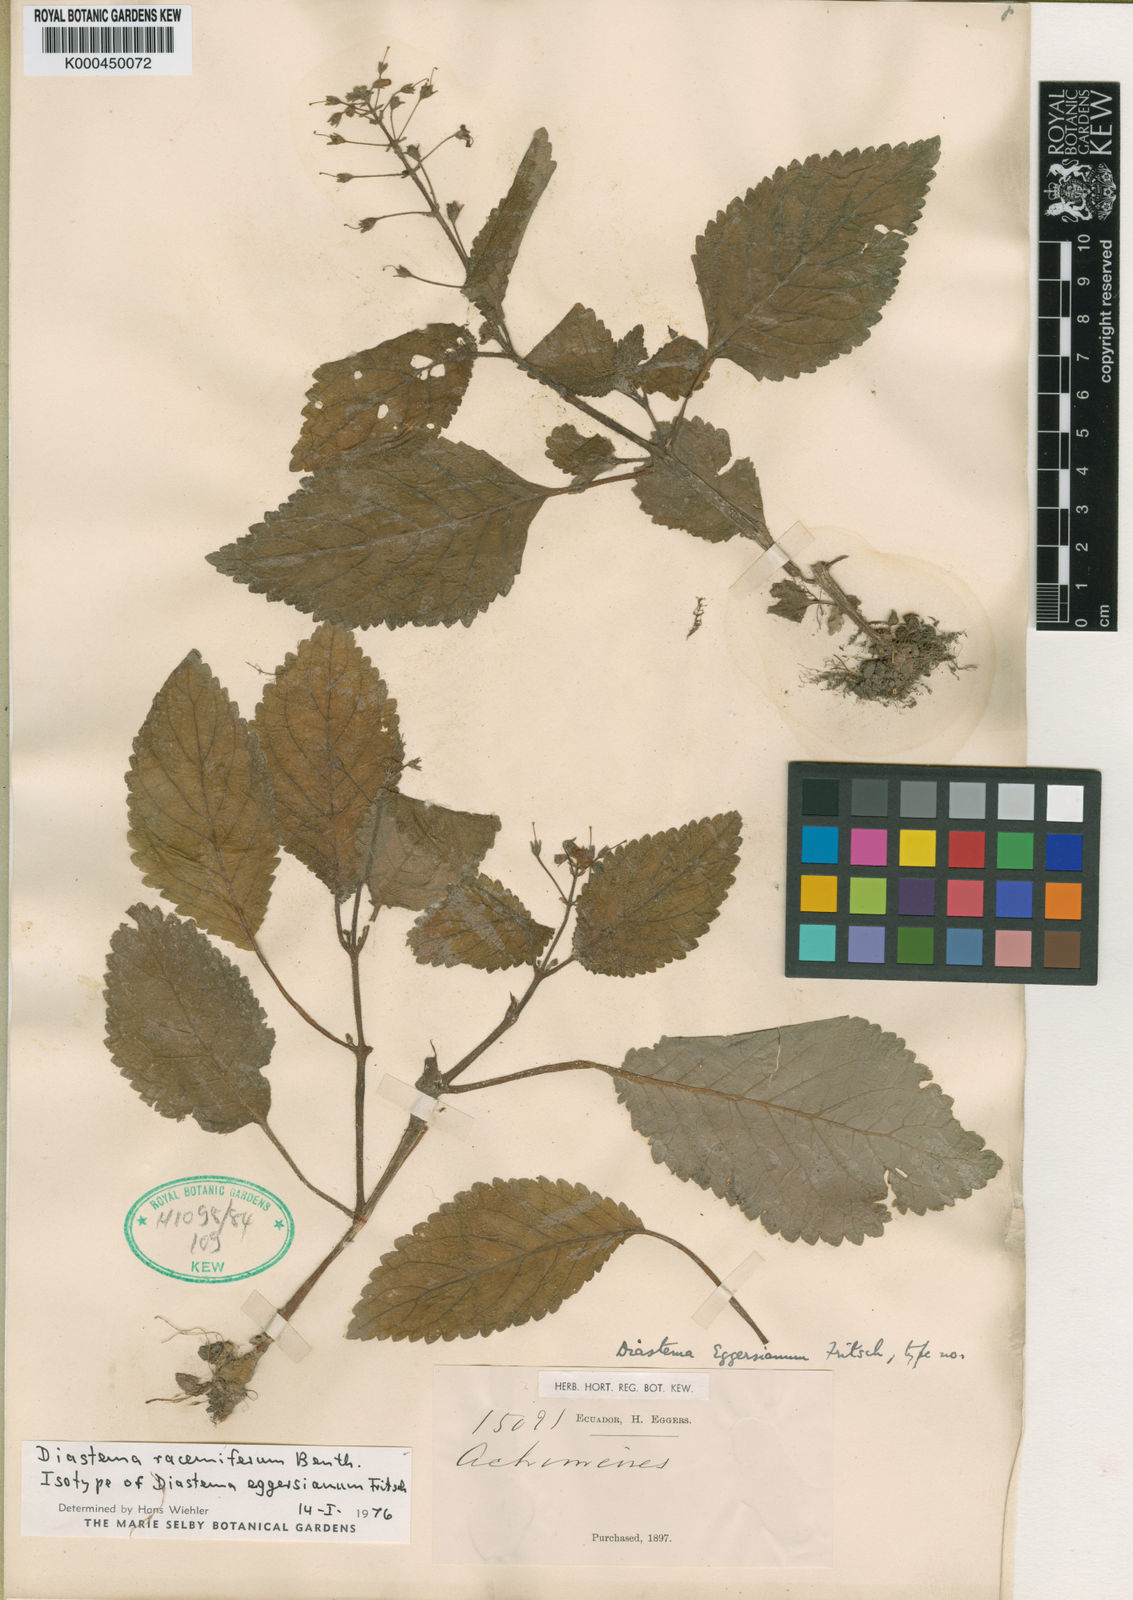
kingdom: Plantae
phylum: Tracheophyta
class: Magnoliopsida
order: Lamiales
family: Gesneriaceae
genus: Diastema
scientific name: Diastema eggersianum
